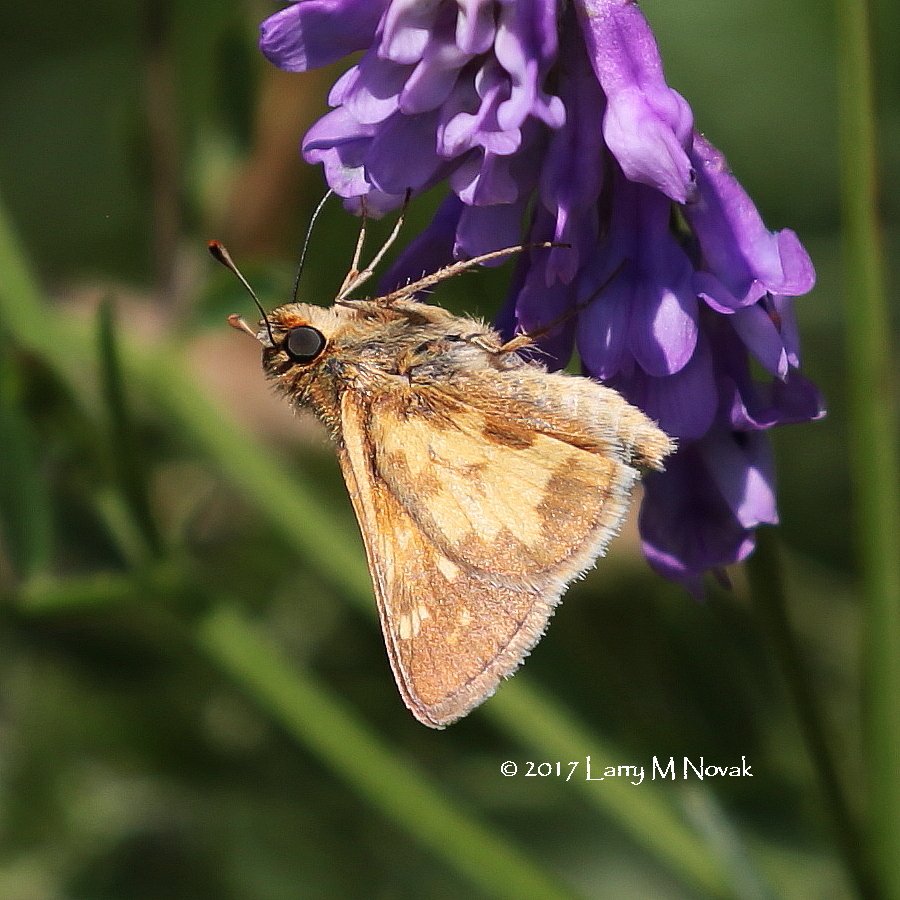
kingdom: Animalia
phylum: Arthropoda
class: Insecta
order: Lepidoptera
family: Hesperiidae
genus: Polites
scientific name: Polites coras
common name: Peck's Skipper
